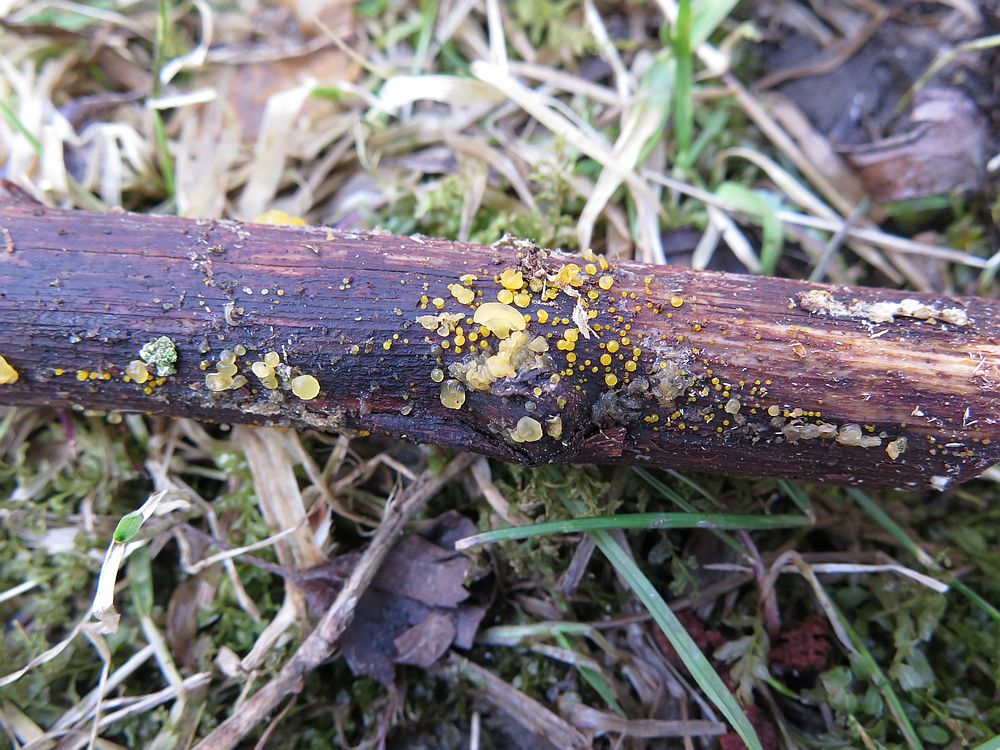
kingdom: Fungi
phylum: Basidiomycota
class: Dacrymycetes
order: Dacrymycetales
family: Dacrymycetaceae
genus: Dacrymyces
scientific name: Dacrymyces lacrymalis
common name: rynket tåresvamp
